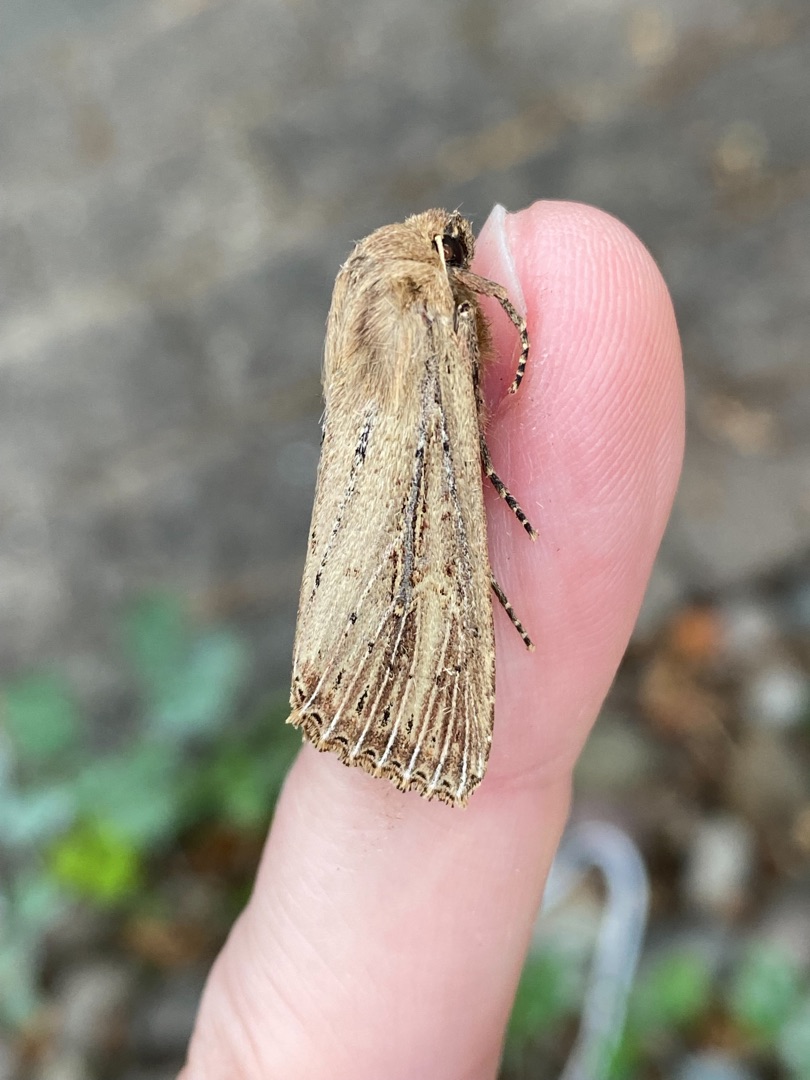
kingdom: Animalia
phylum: Arthropoda
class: Insecta
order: Lepidoptera
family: Noctuidae
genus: Nonagria
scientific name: Nonagria typhae
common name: Stor rørugle
